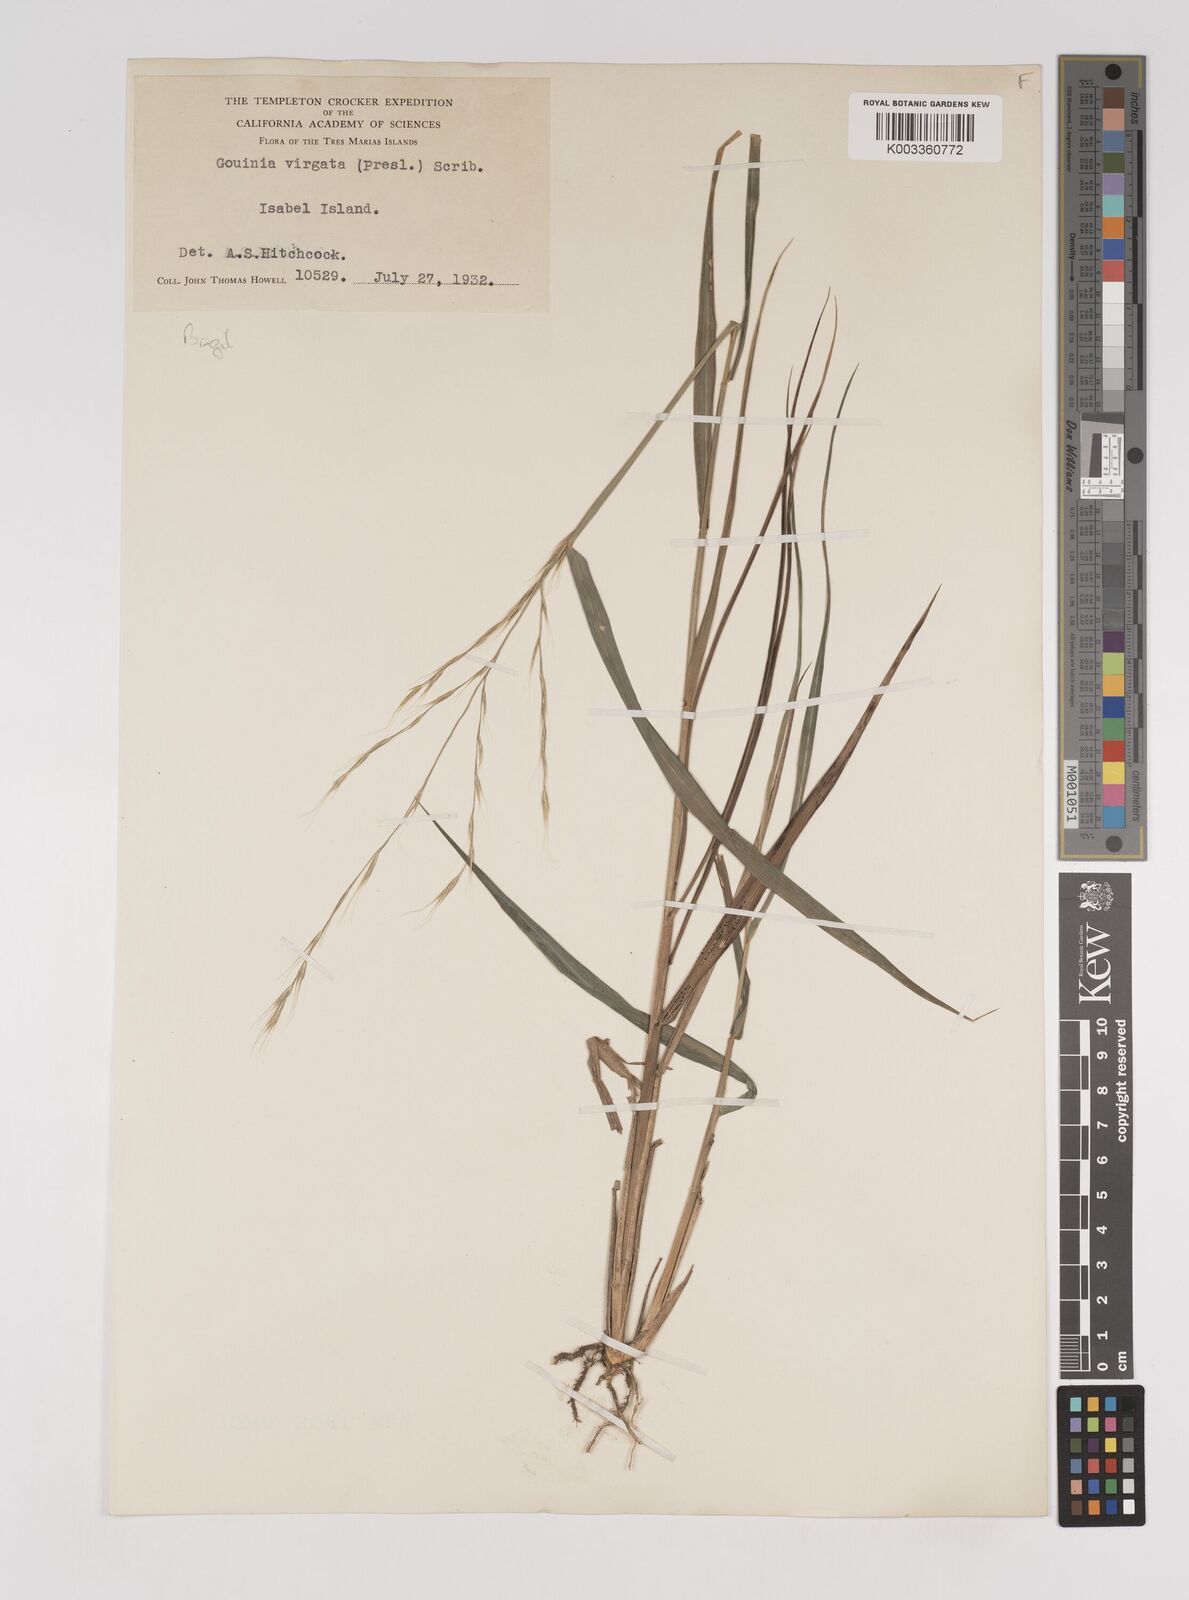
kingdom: Plantae
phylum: Tracheophyta
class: Liliopsida
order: Poales
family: Poaceae
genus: Gouinia
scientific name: Gouinia virgata
